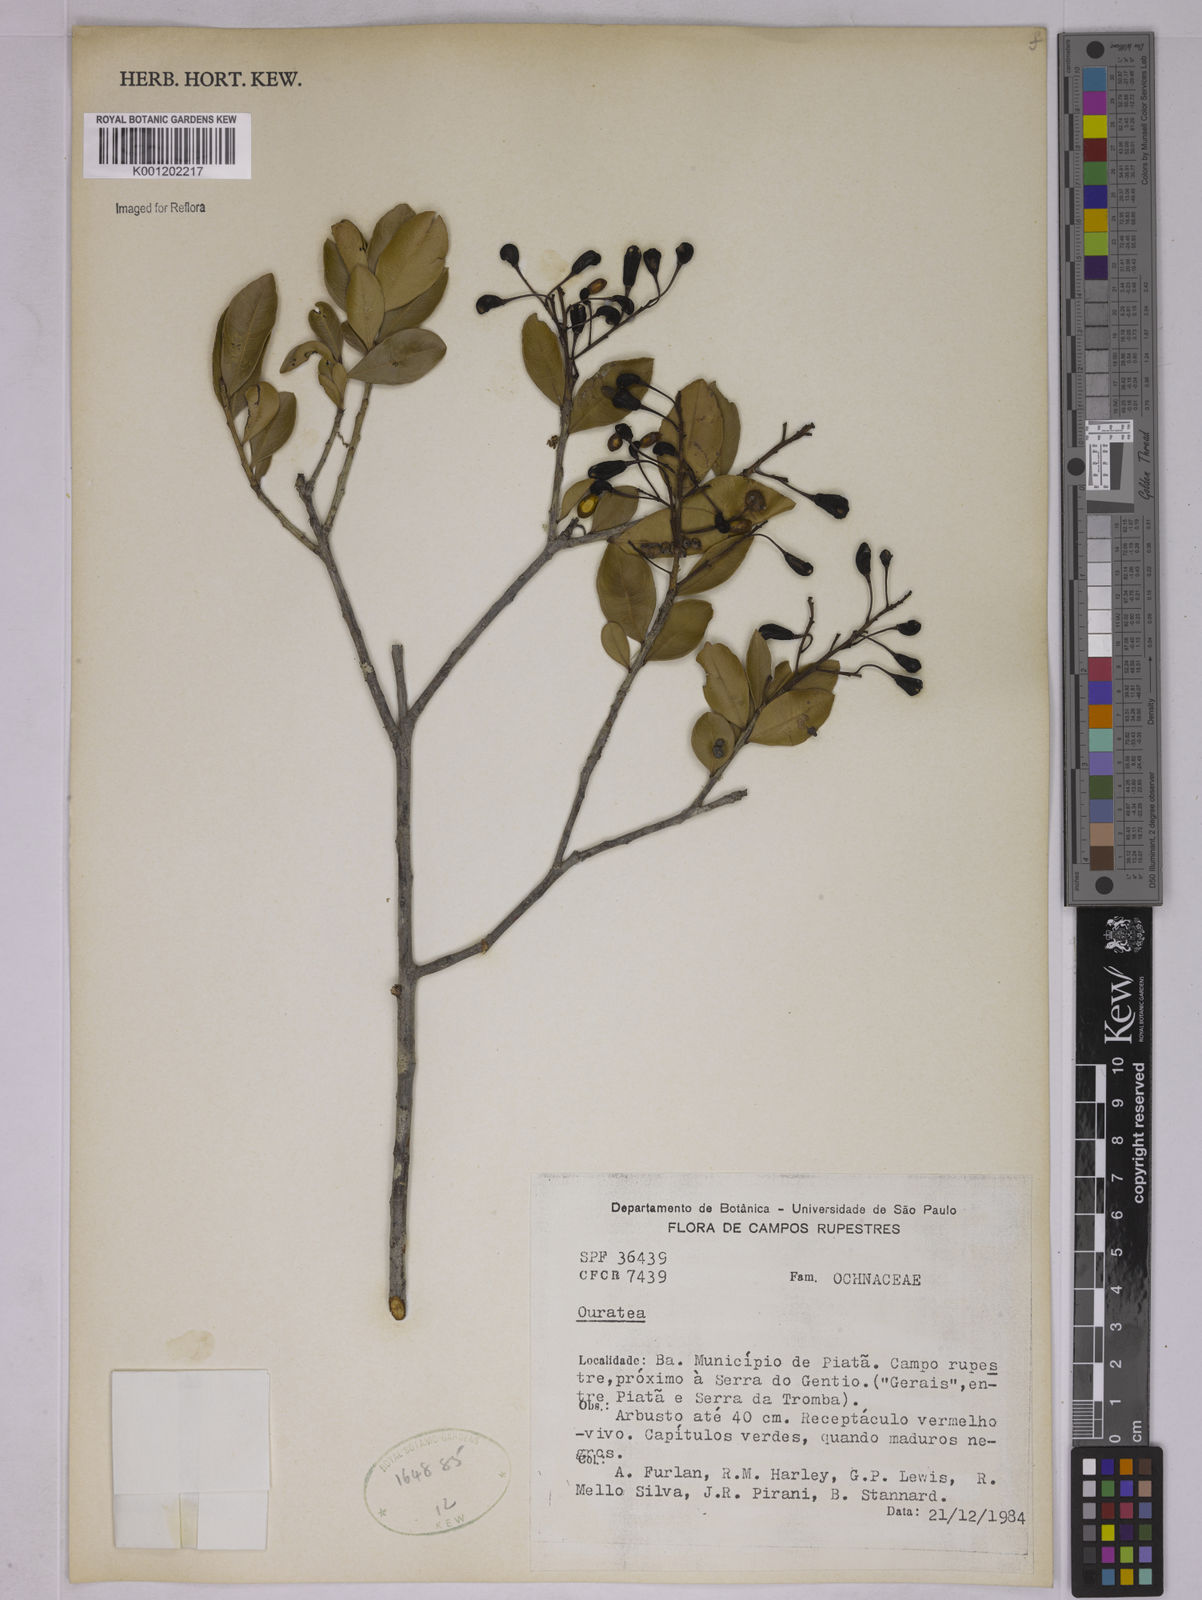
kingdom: Plantae
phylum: Tracheophyta
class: Magnoliopsida
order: Malpighiales
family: Ochnaceae
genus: Ouratea
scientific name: Ouratea
